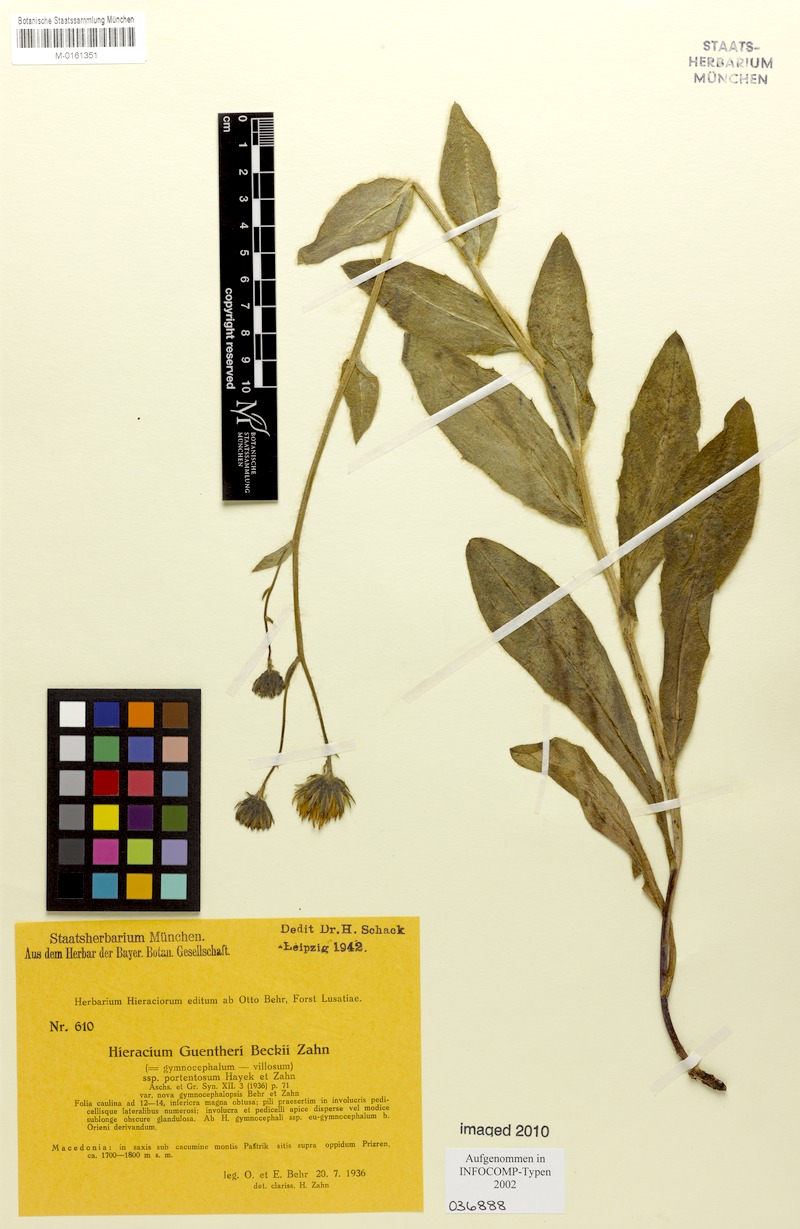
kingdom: Plantae
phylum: Tracheophyta
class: Magnoliopsida
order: Asterales
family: Asteraceae
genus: Hieracium
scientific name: Hieracium guentheri-beckii
